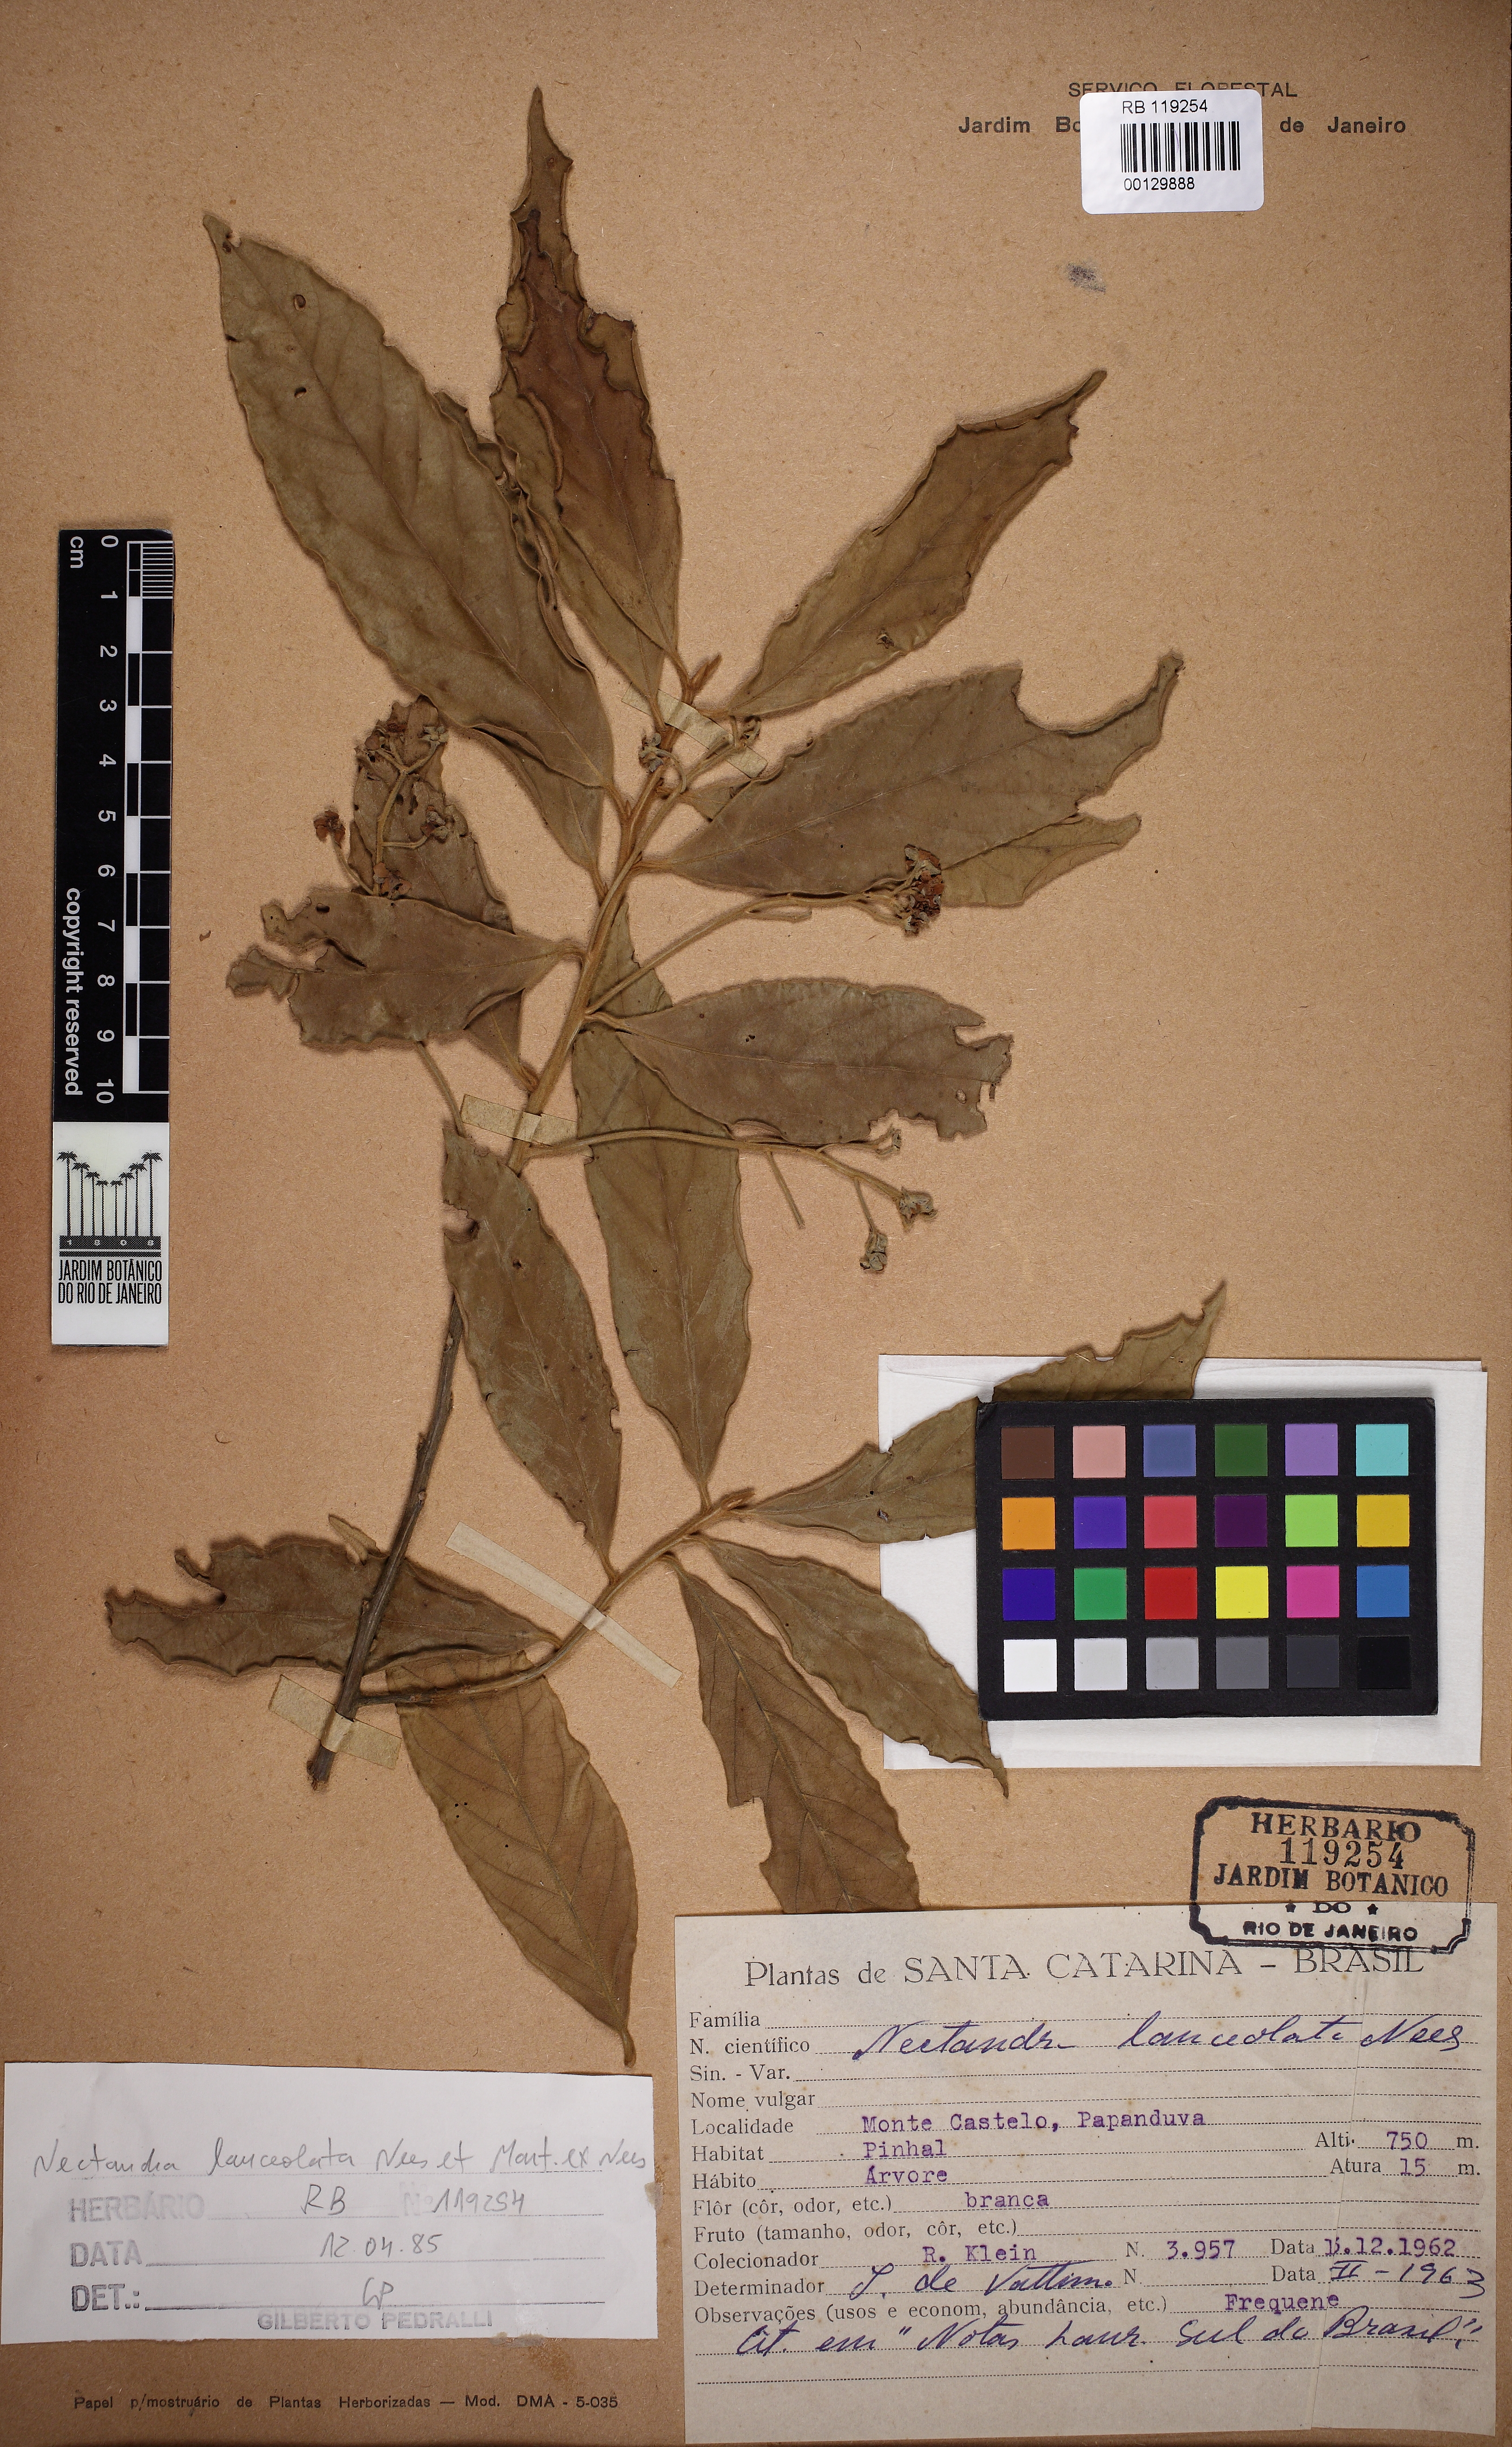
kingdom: Plantae
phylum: Tracheophyta
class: Magnoliopsida
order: Laurales
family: Lauraceae
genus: Nectandra
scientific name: Nectandra lanceolata
